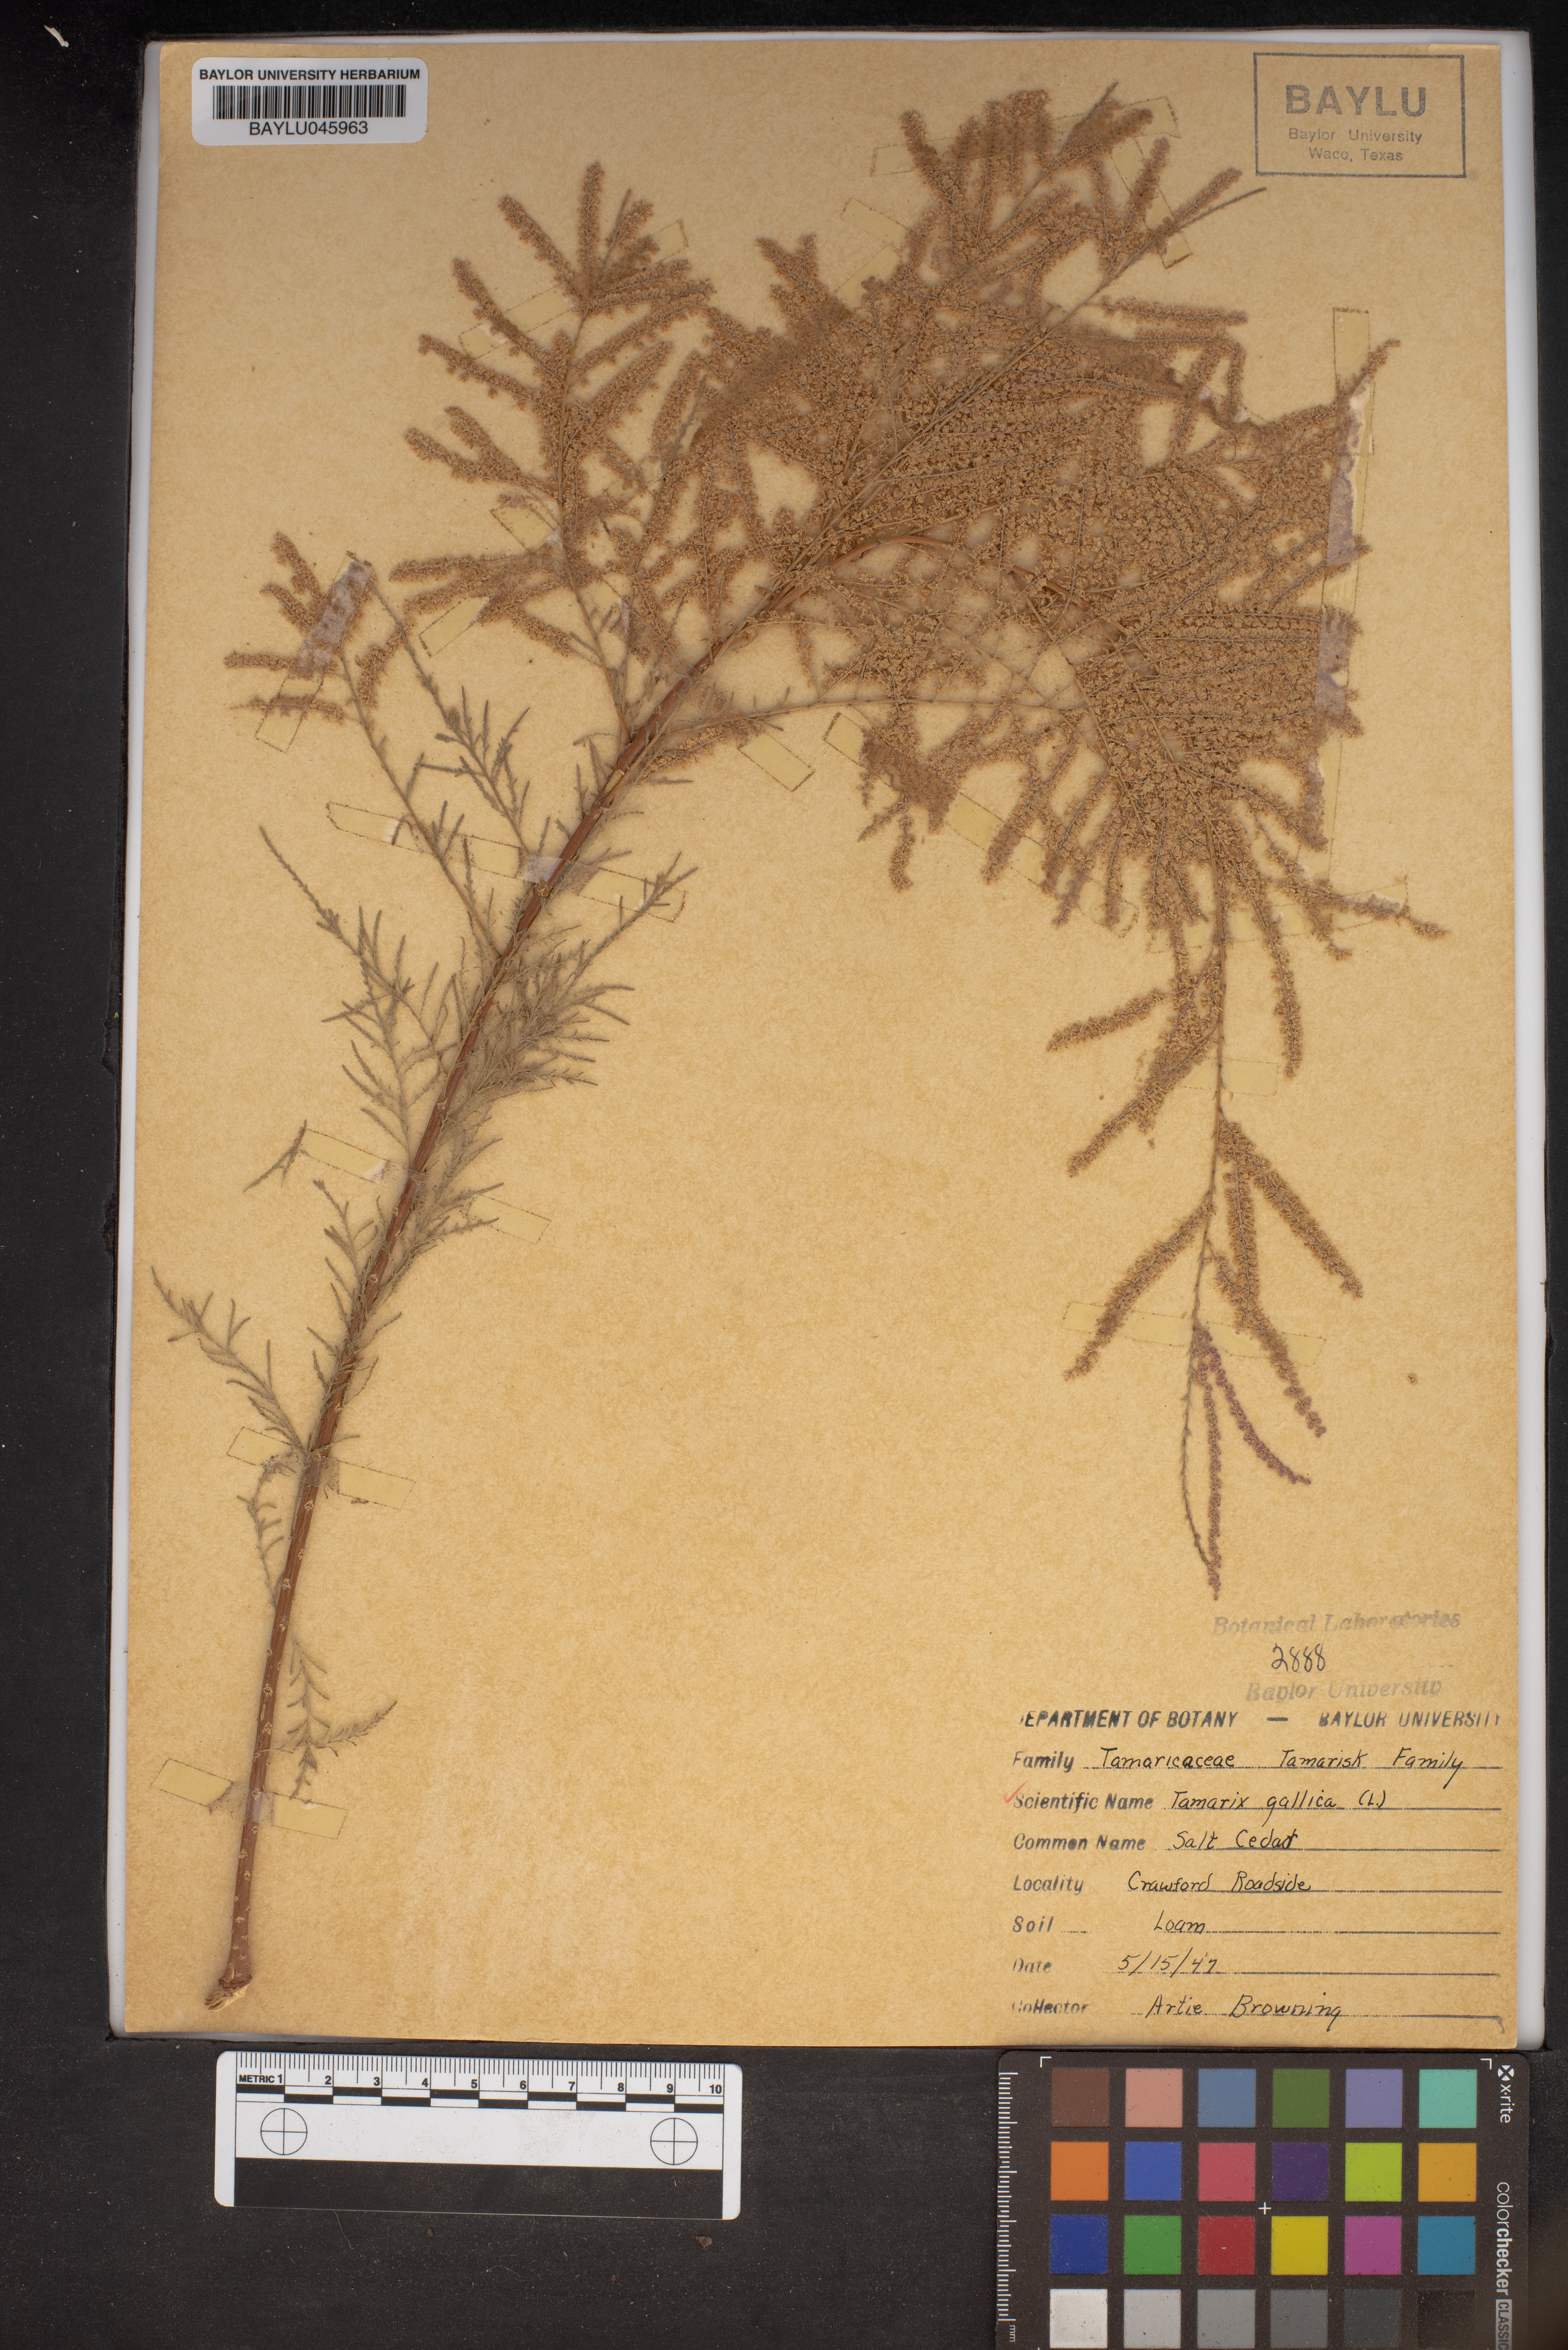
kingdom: Plantae
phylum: Tracheophyta
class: Magnoliopsida
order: Caryophyllales
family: Tamaricaceae
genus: Tamarix
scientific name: Tamarix gallica
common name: Tamarisk
